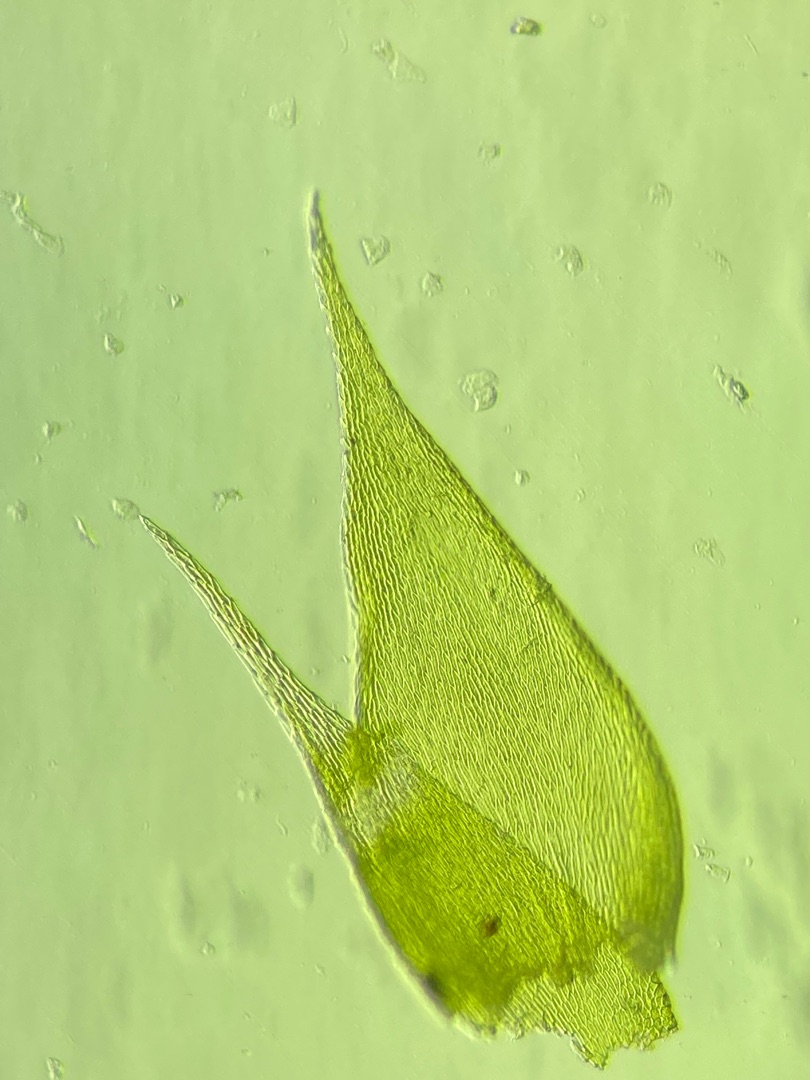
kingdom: Plantae
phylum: Bryophyta
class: Bryopsida
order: Hypnales
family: Pylaisiaceae
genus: Pylaisia
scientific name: Pylaisia polyantha
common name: Mangefrugtet aspemos
